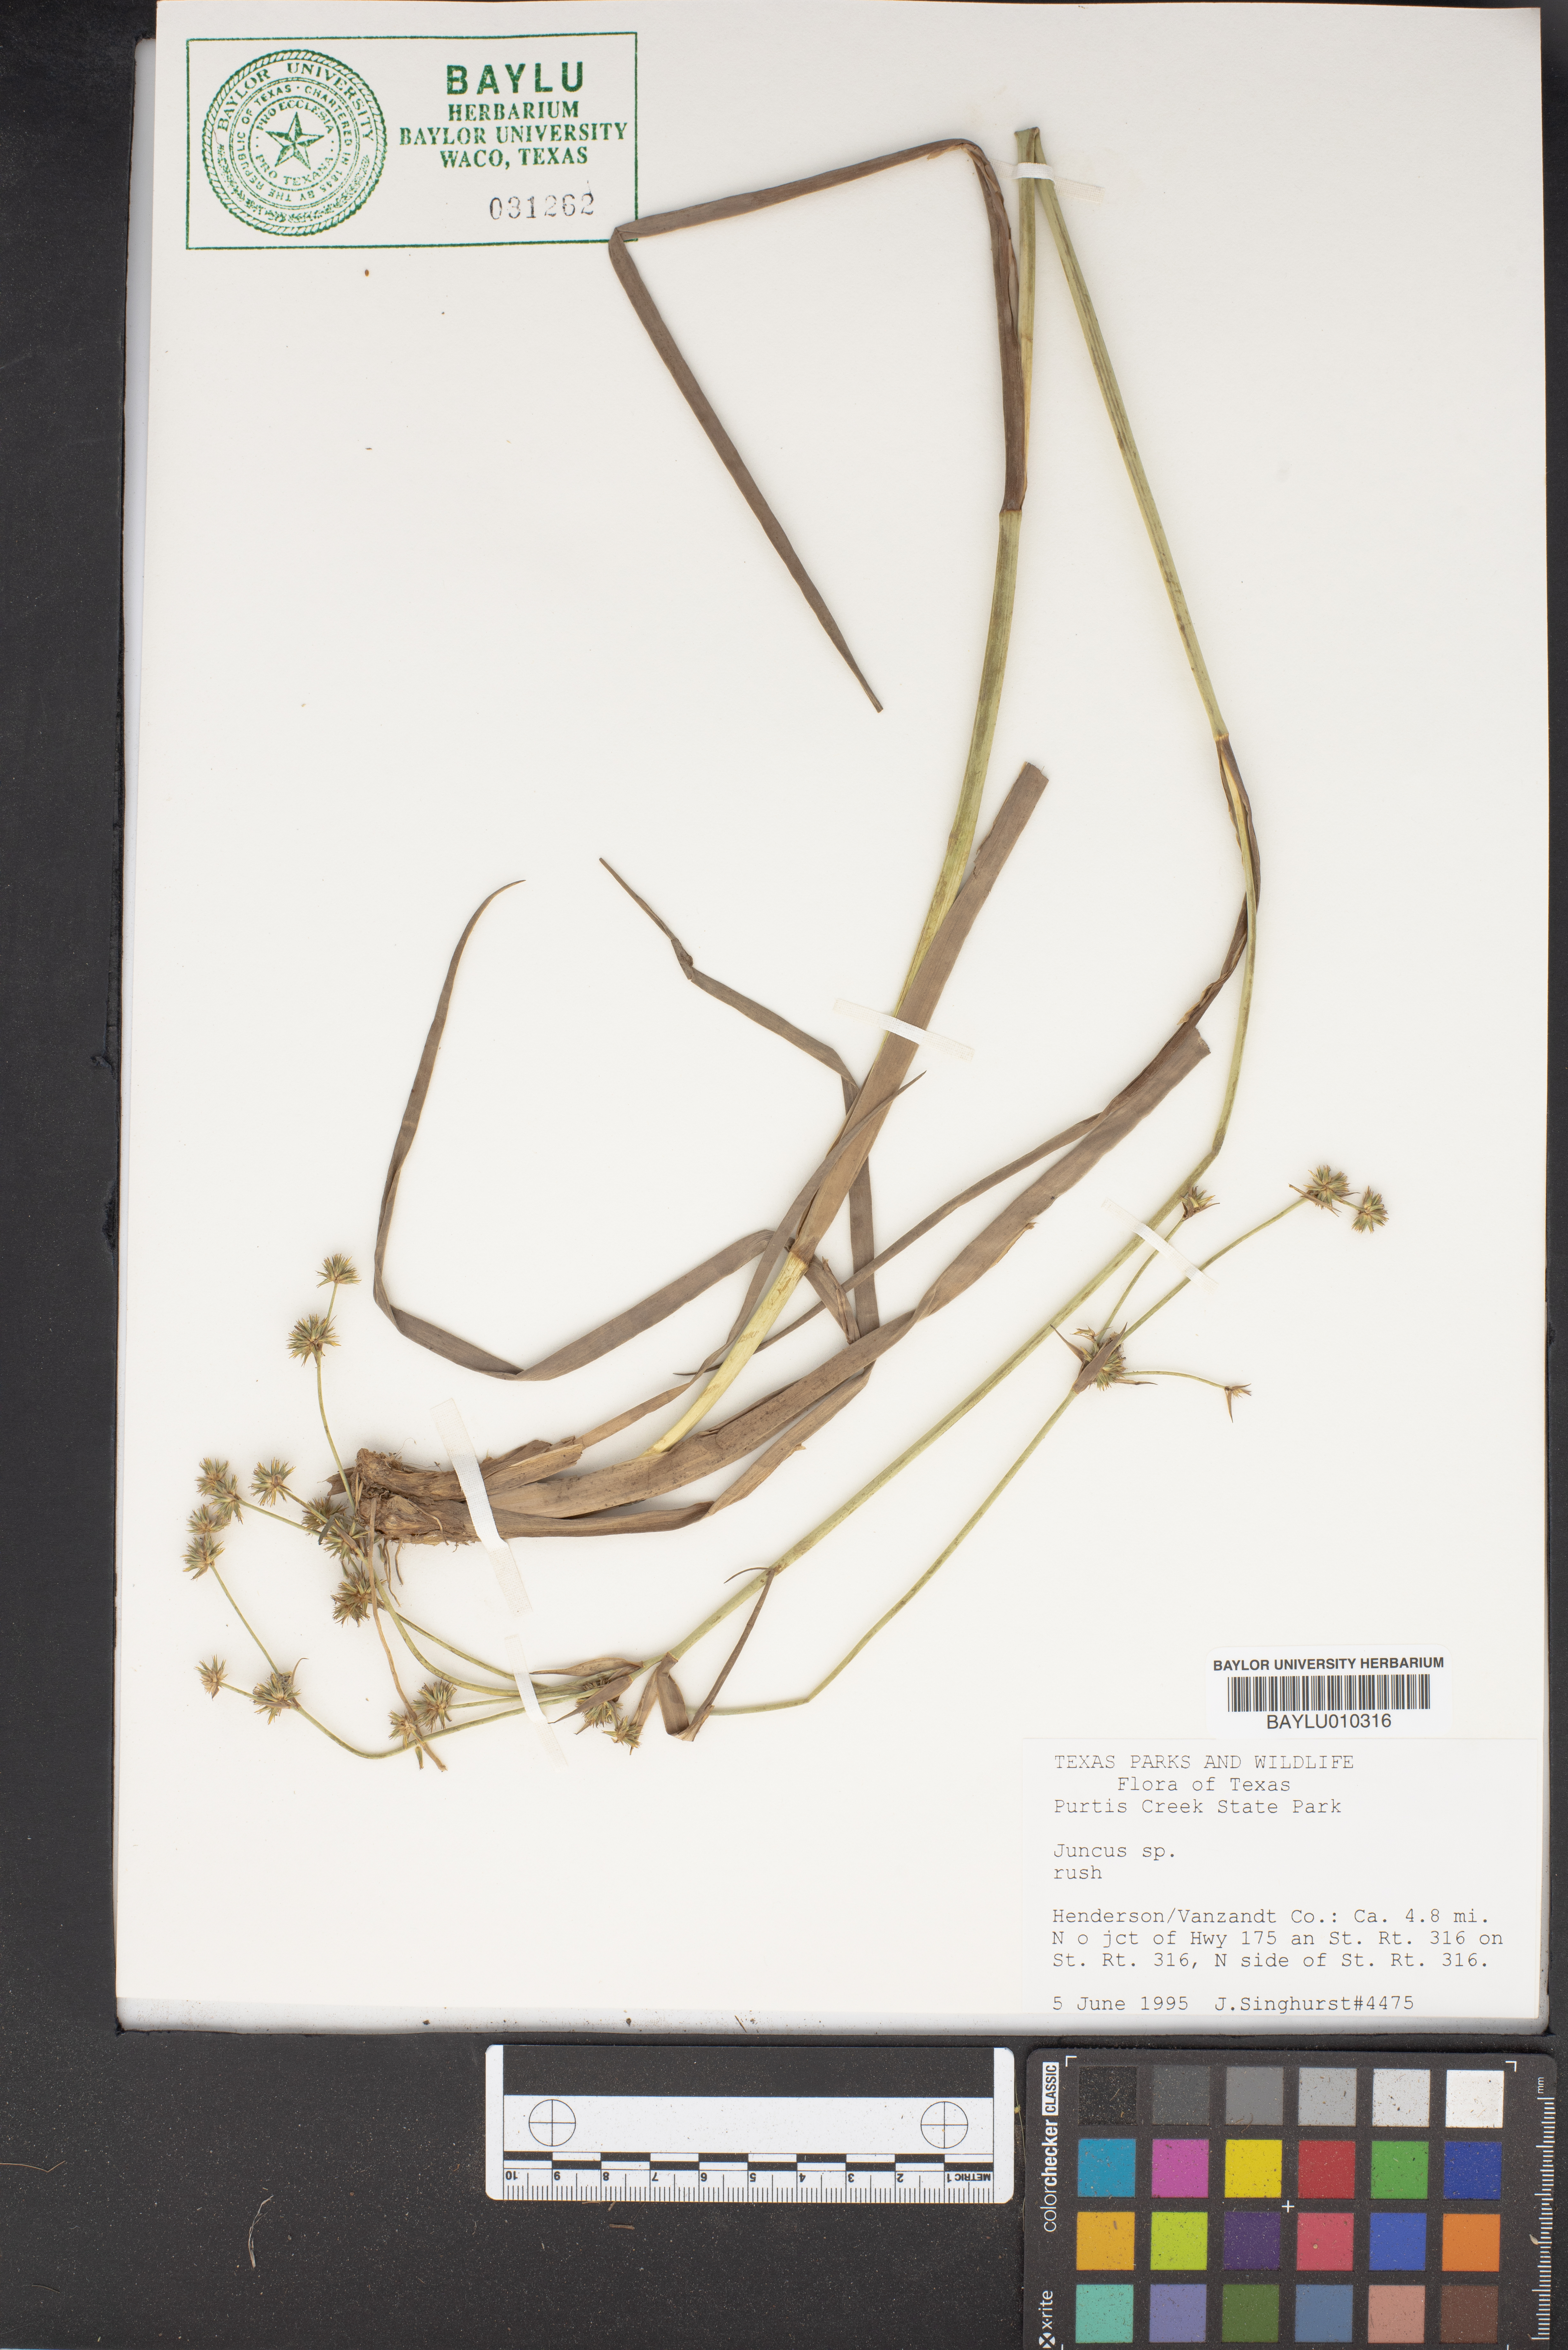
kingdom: Plantae
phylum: Tracheophyta
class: Liliopsida
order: Poales
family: Juncaceae
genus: Juncus
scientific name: Juncus
